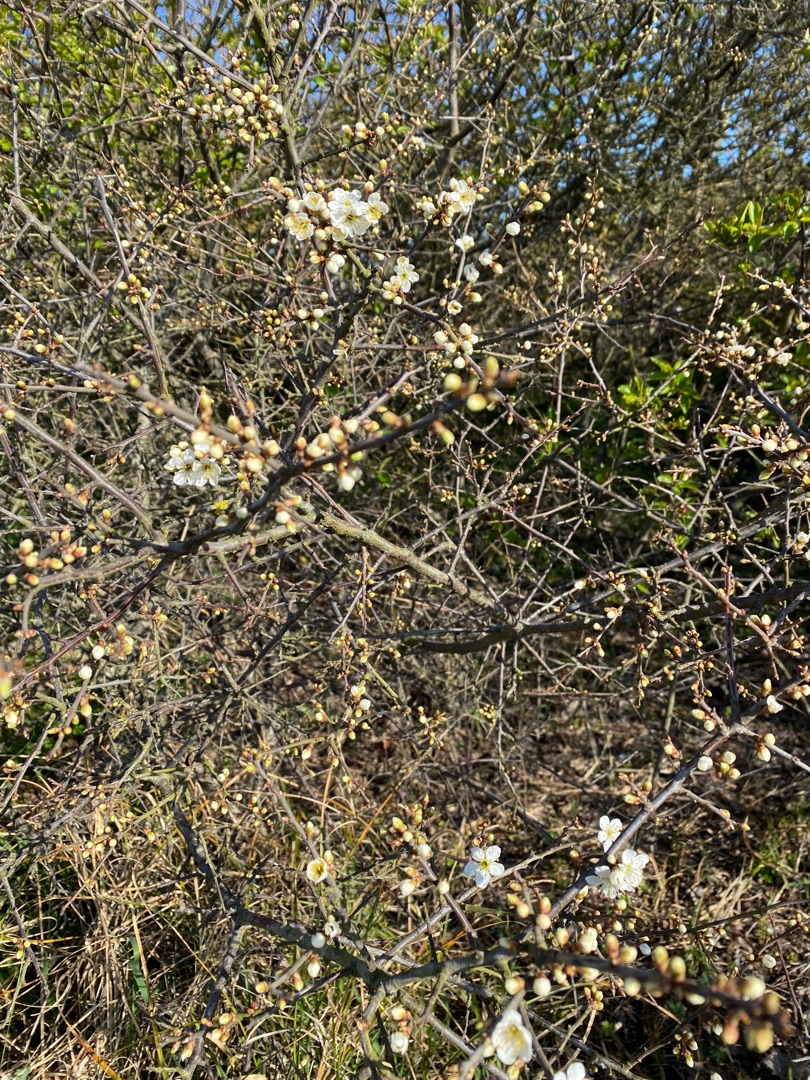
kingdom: Plantae
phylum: Tracheophyta
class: Magnoliopsida
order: Rosales
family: Rosaceae
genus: Prunus
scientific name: Prunus spinosa
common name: Slåen
